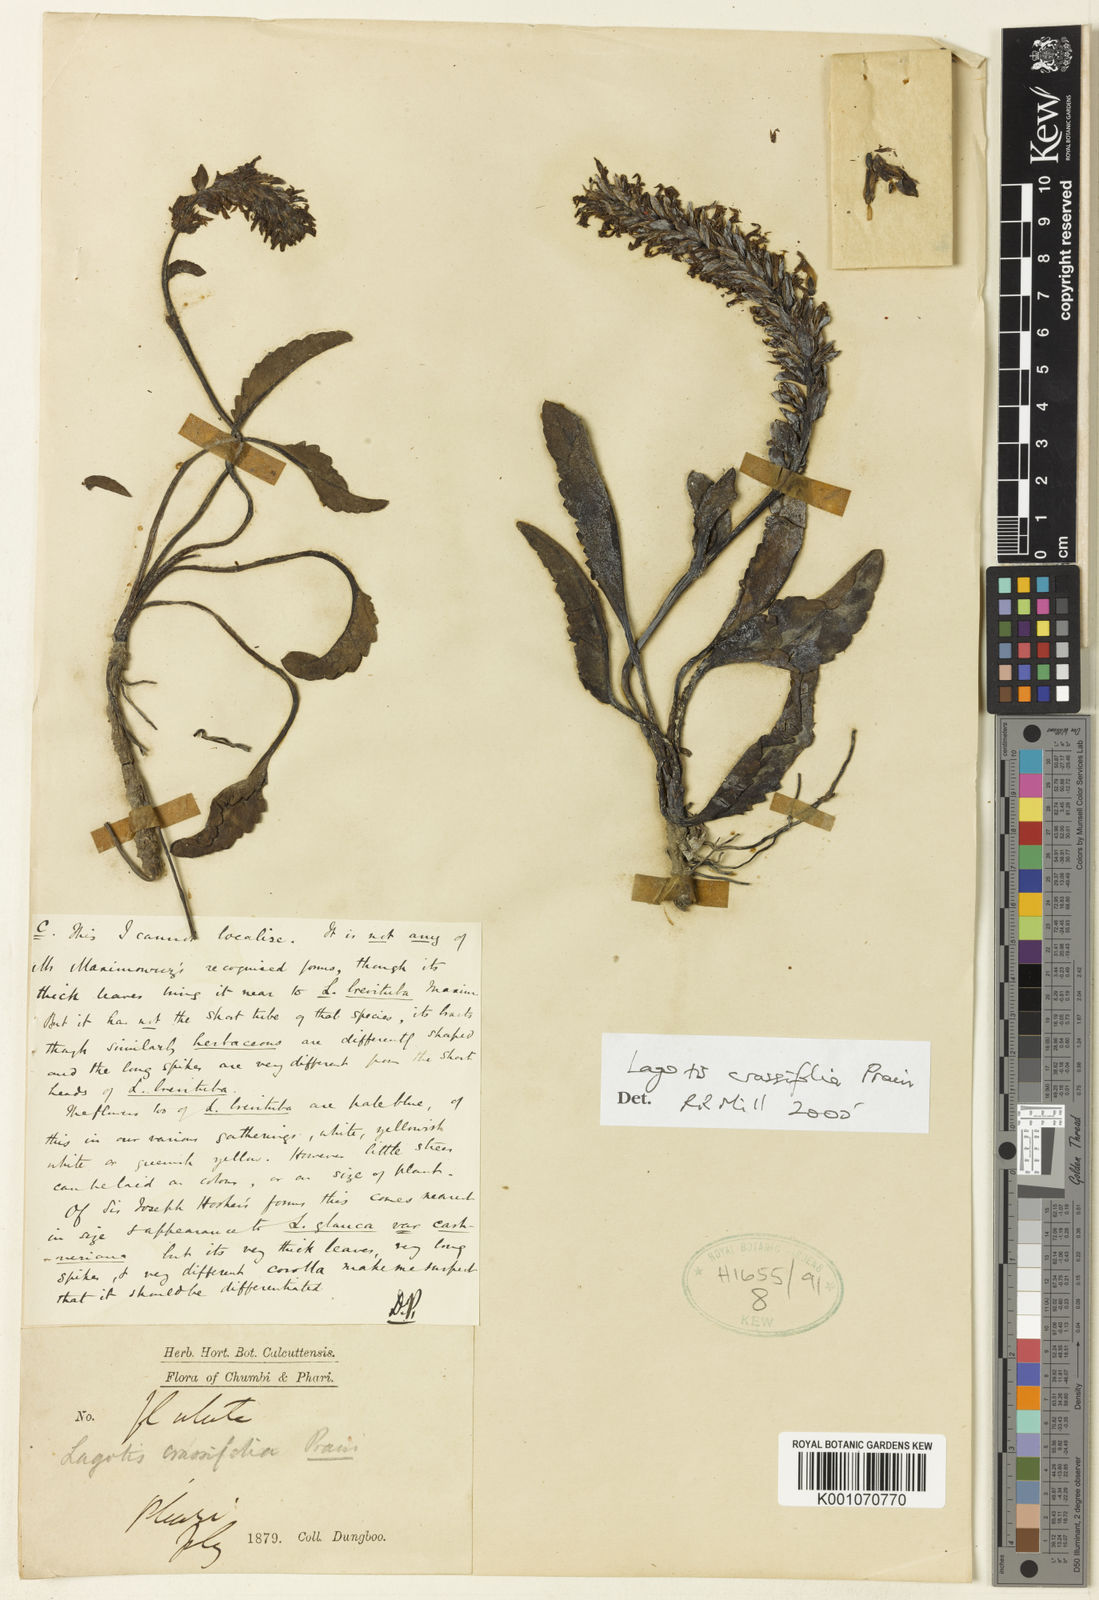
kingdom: Plantae
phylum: Tracheophyta
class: Magnoliopsida
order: Lamiales
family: Plantaginaceae
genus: Lagotis
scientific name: Lagotis crassifolia
